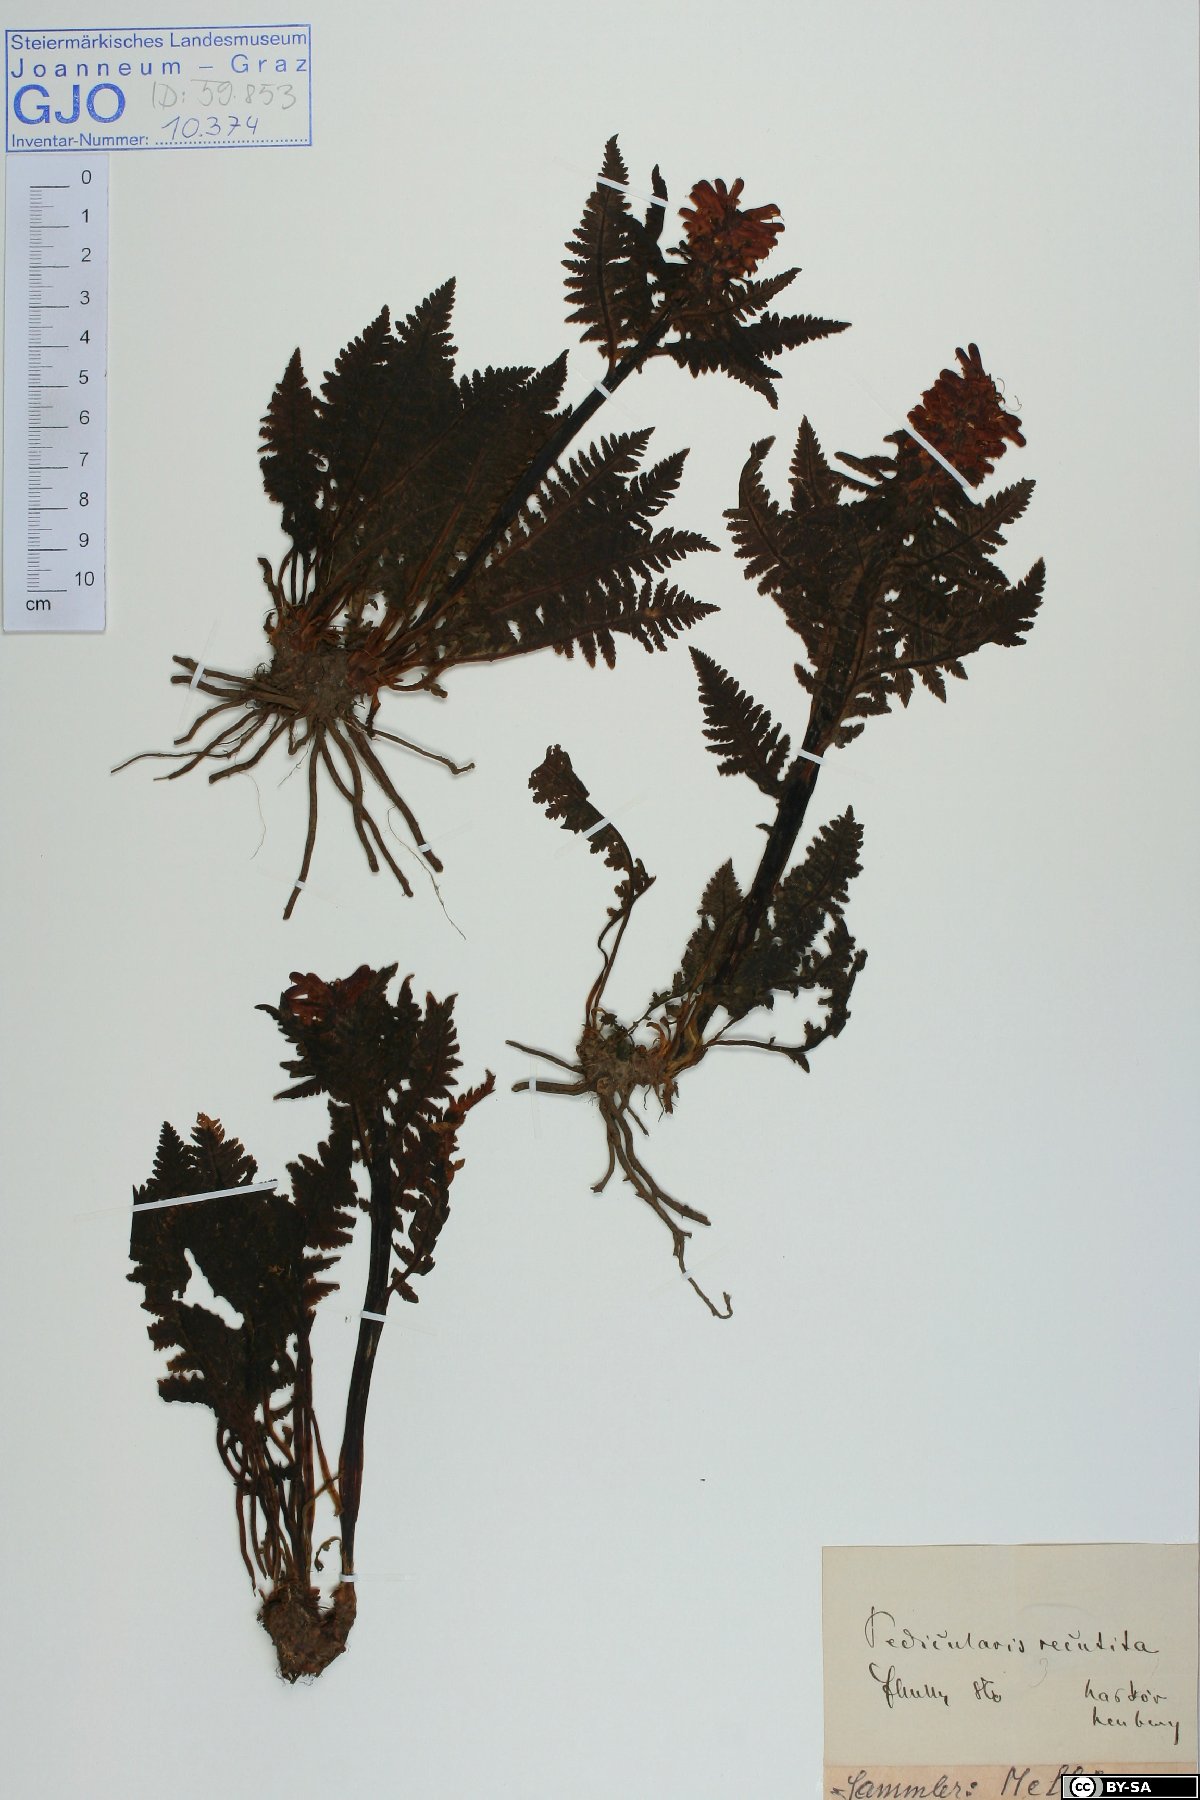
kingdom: Plantae
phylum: Tracheophyta
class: Magnoliopsida
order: Lamiales
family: Orobanchaceae
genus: Pedicularis
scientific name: Pedicularis recutita
